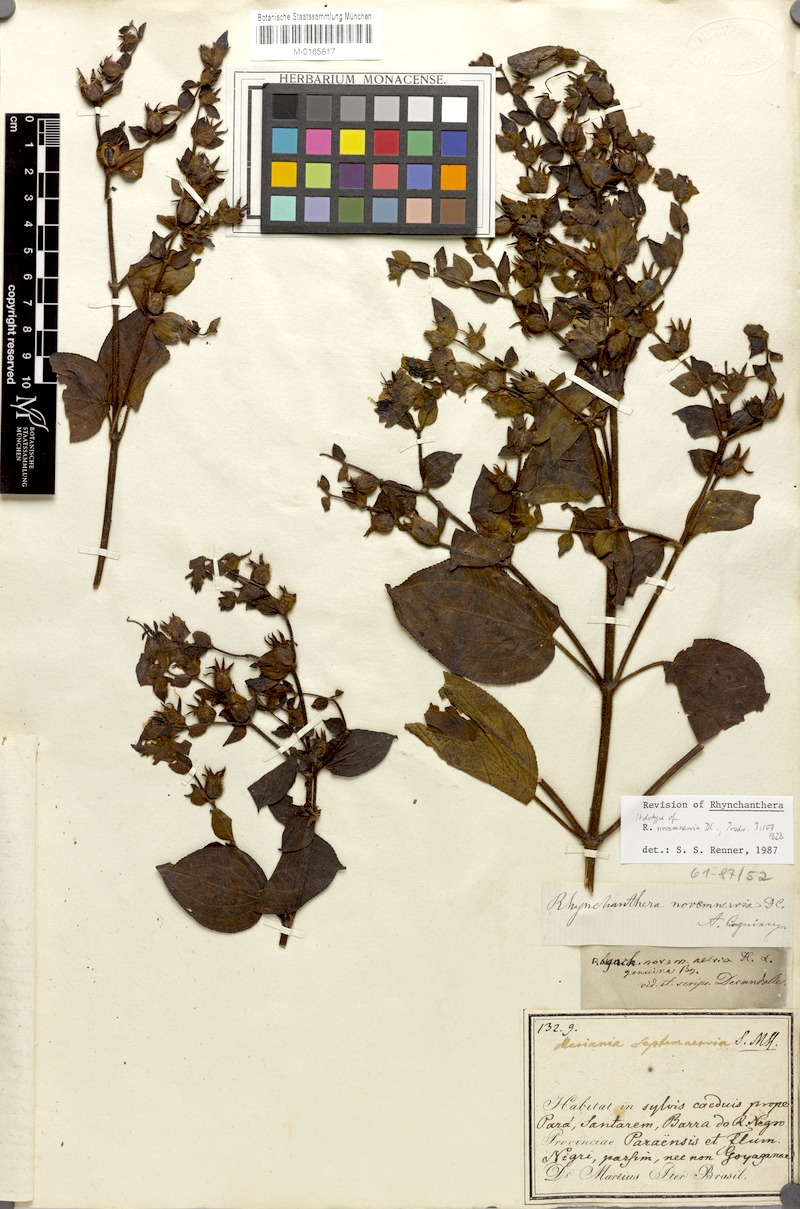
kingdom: Plantae
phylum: Tracheophyta
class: Magnoliopsida
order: Myrtales
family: Melastomataceae
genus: Rhynchanthera
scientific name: Rhynchanthera novemnervia
